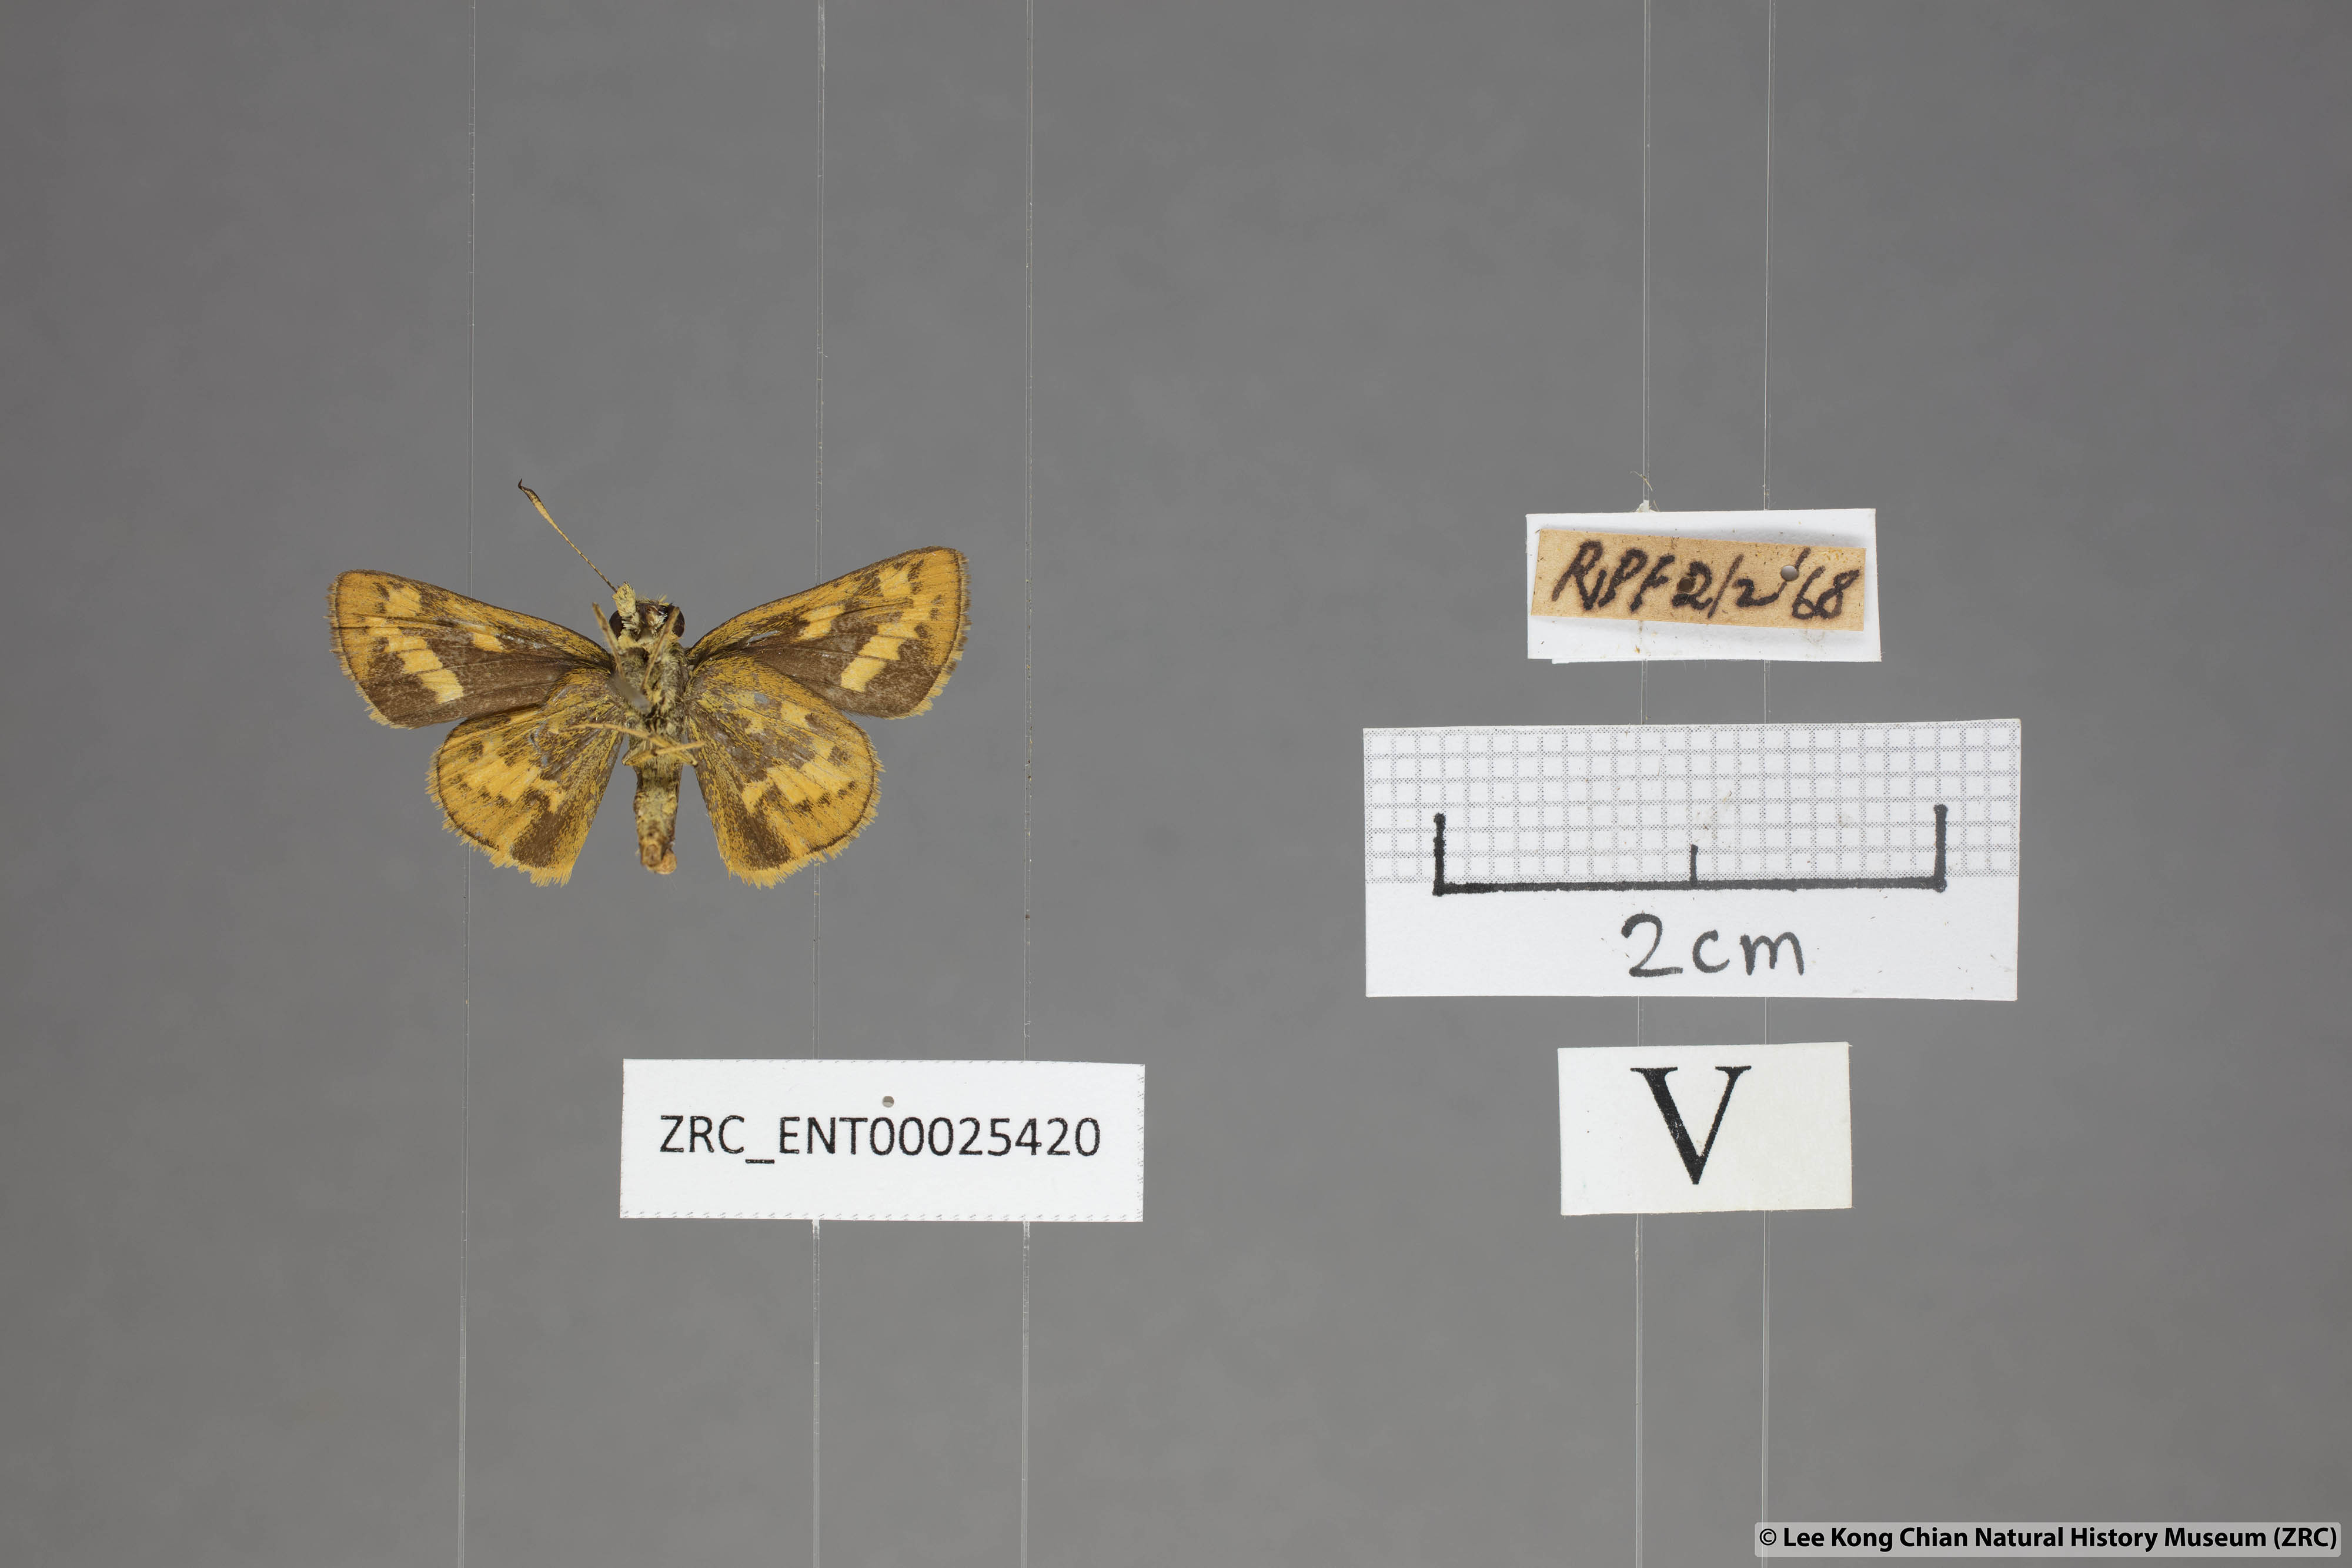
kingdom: Animalia
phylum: Arthropoda
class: Insecta
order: Lepidoptera
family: Hesperiidae
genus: Potanthus
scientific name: Potanthus omaha
